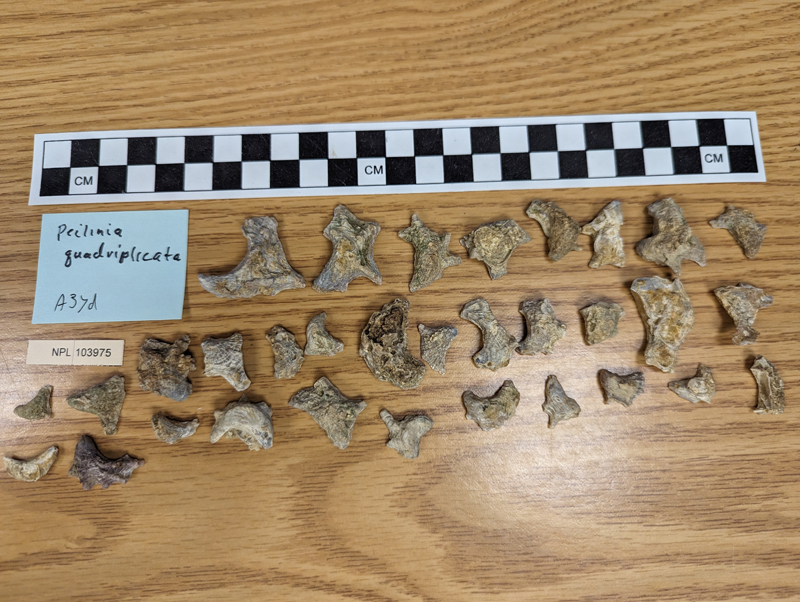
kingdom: Animalia
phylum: Mollusca
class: Bivalvia
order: Ostreida
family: Ostreidae
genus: Peilinia
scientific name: Peilinia Ostrea quadriplicata
